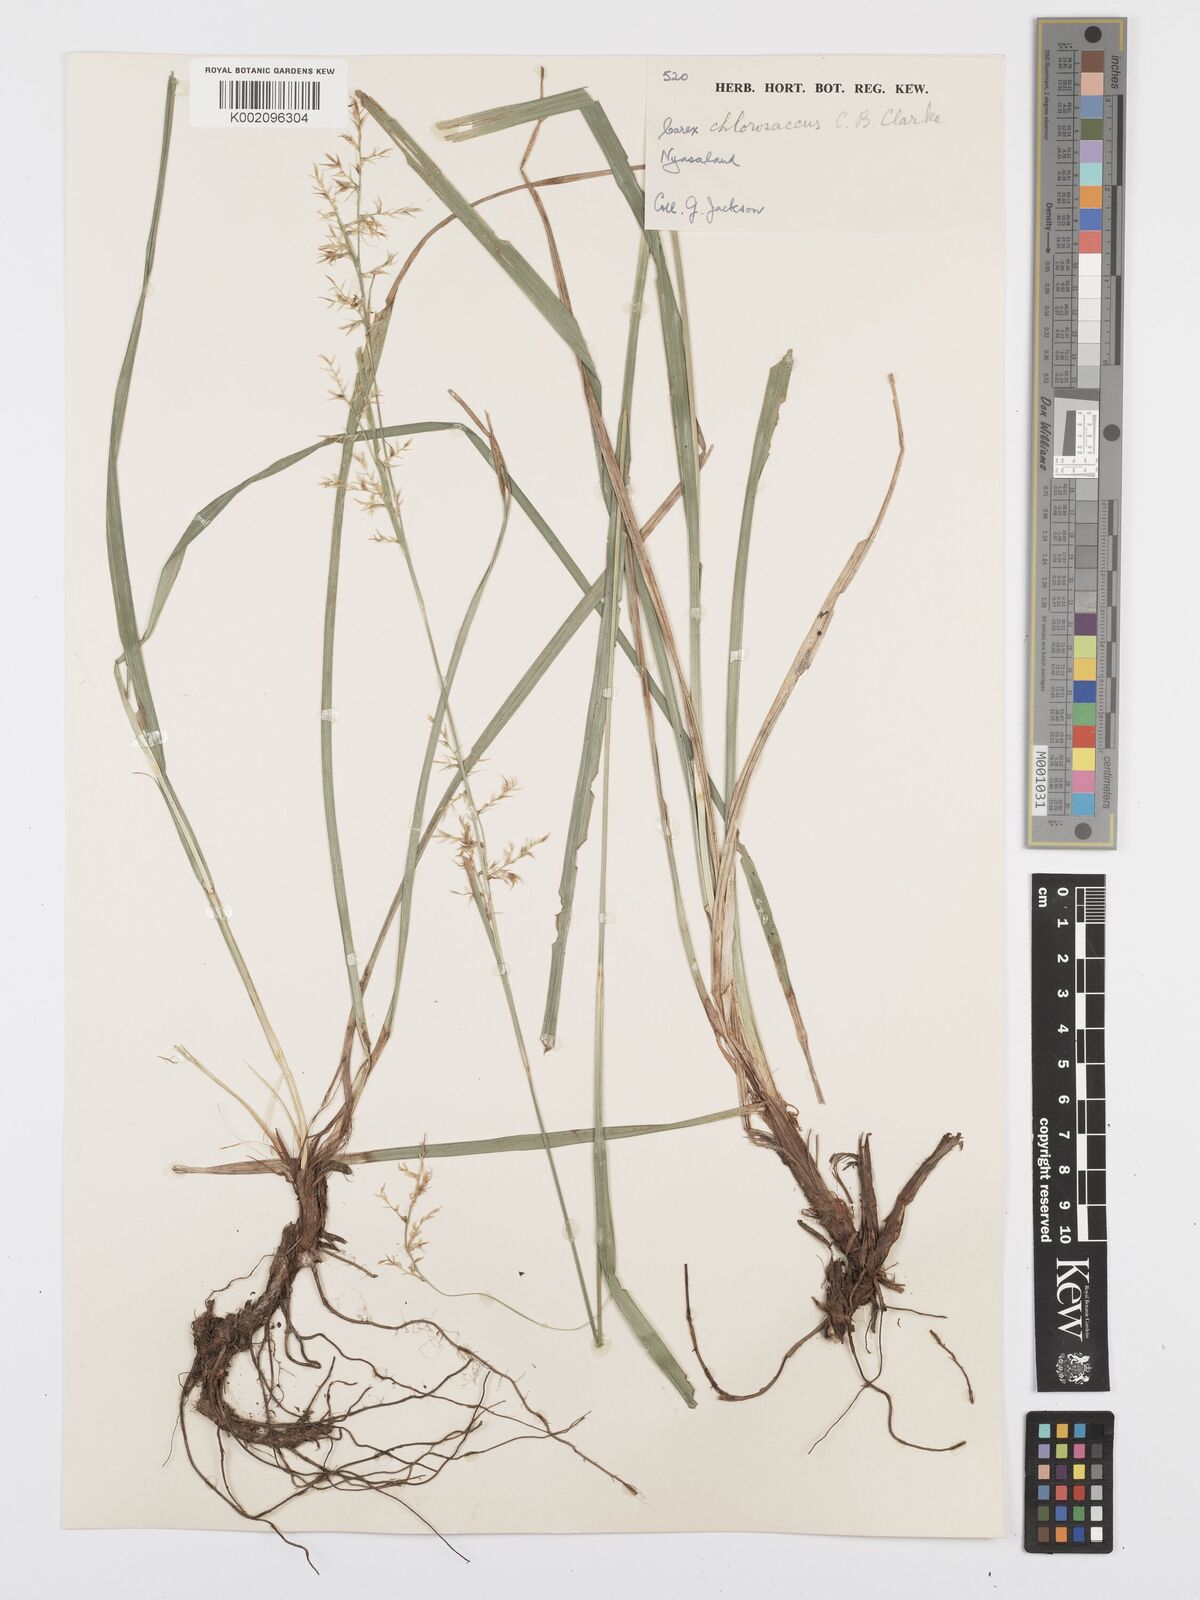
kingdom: Plantae
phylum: Tracheophyta
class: Liliopsida
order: Poales
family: Cyperaceae
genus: Carex
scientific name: Carex chlorosaccus
